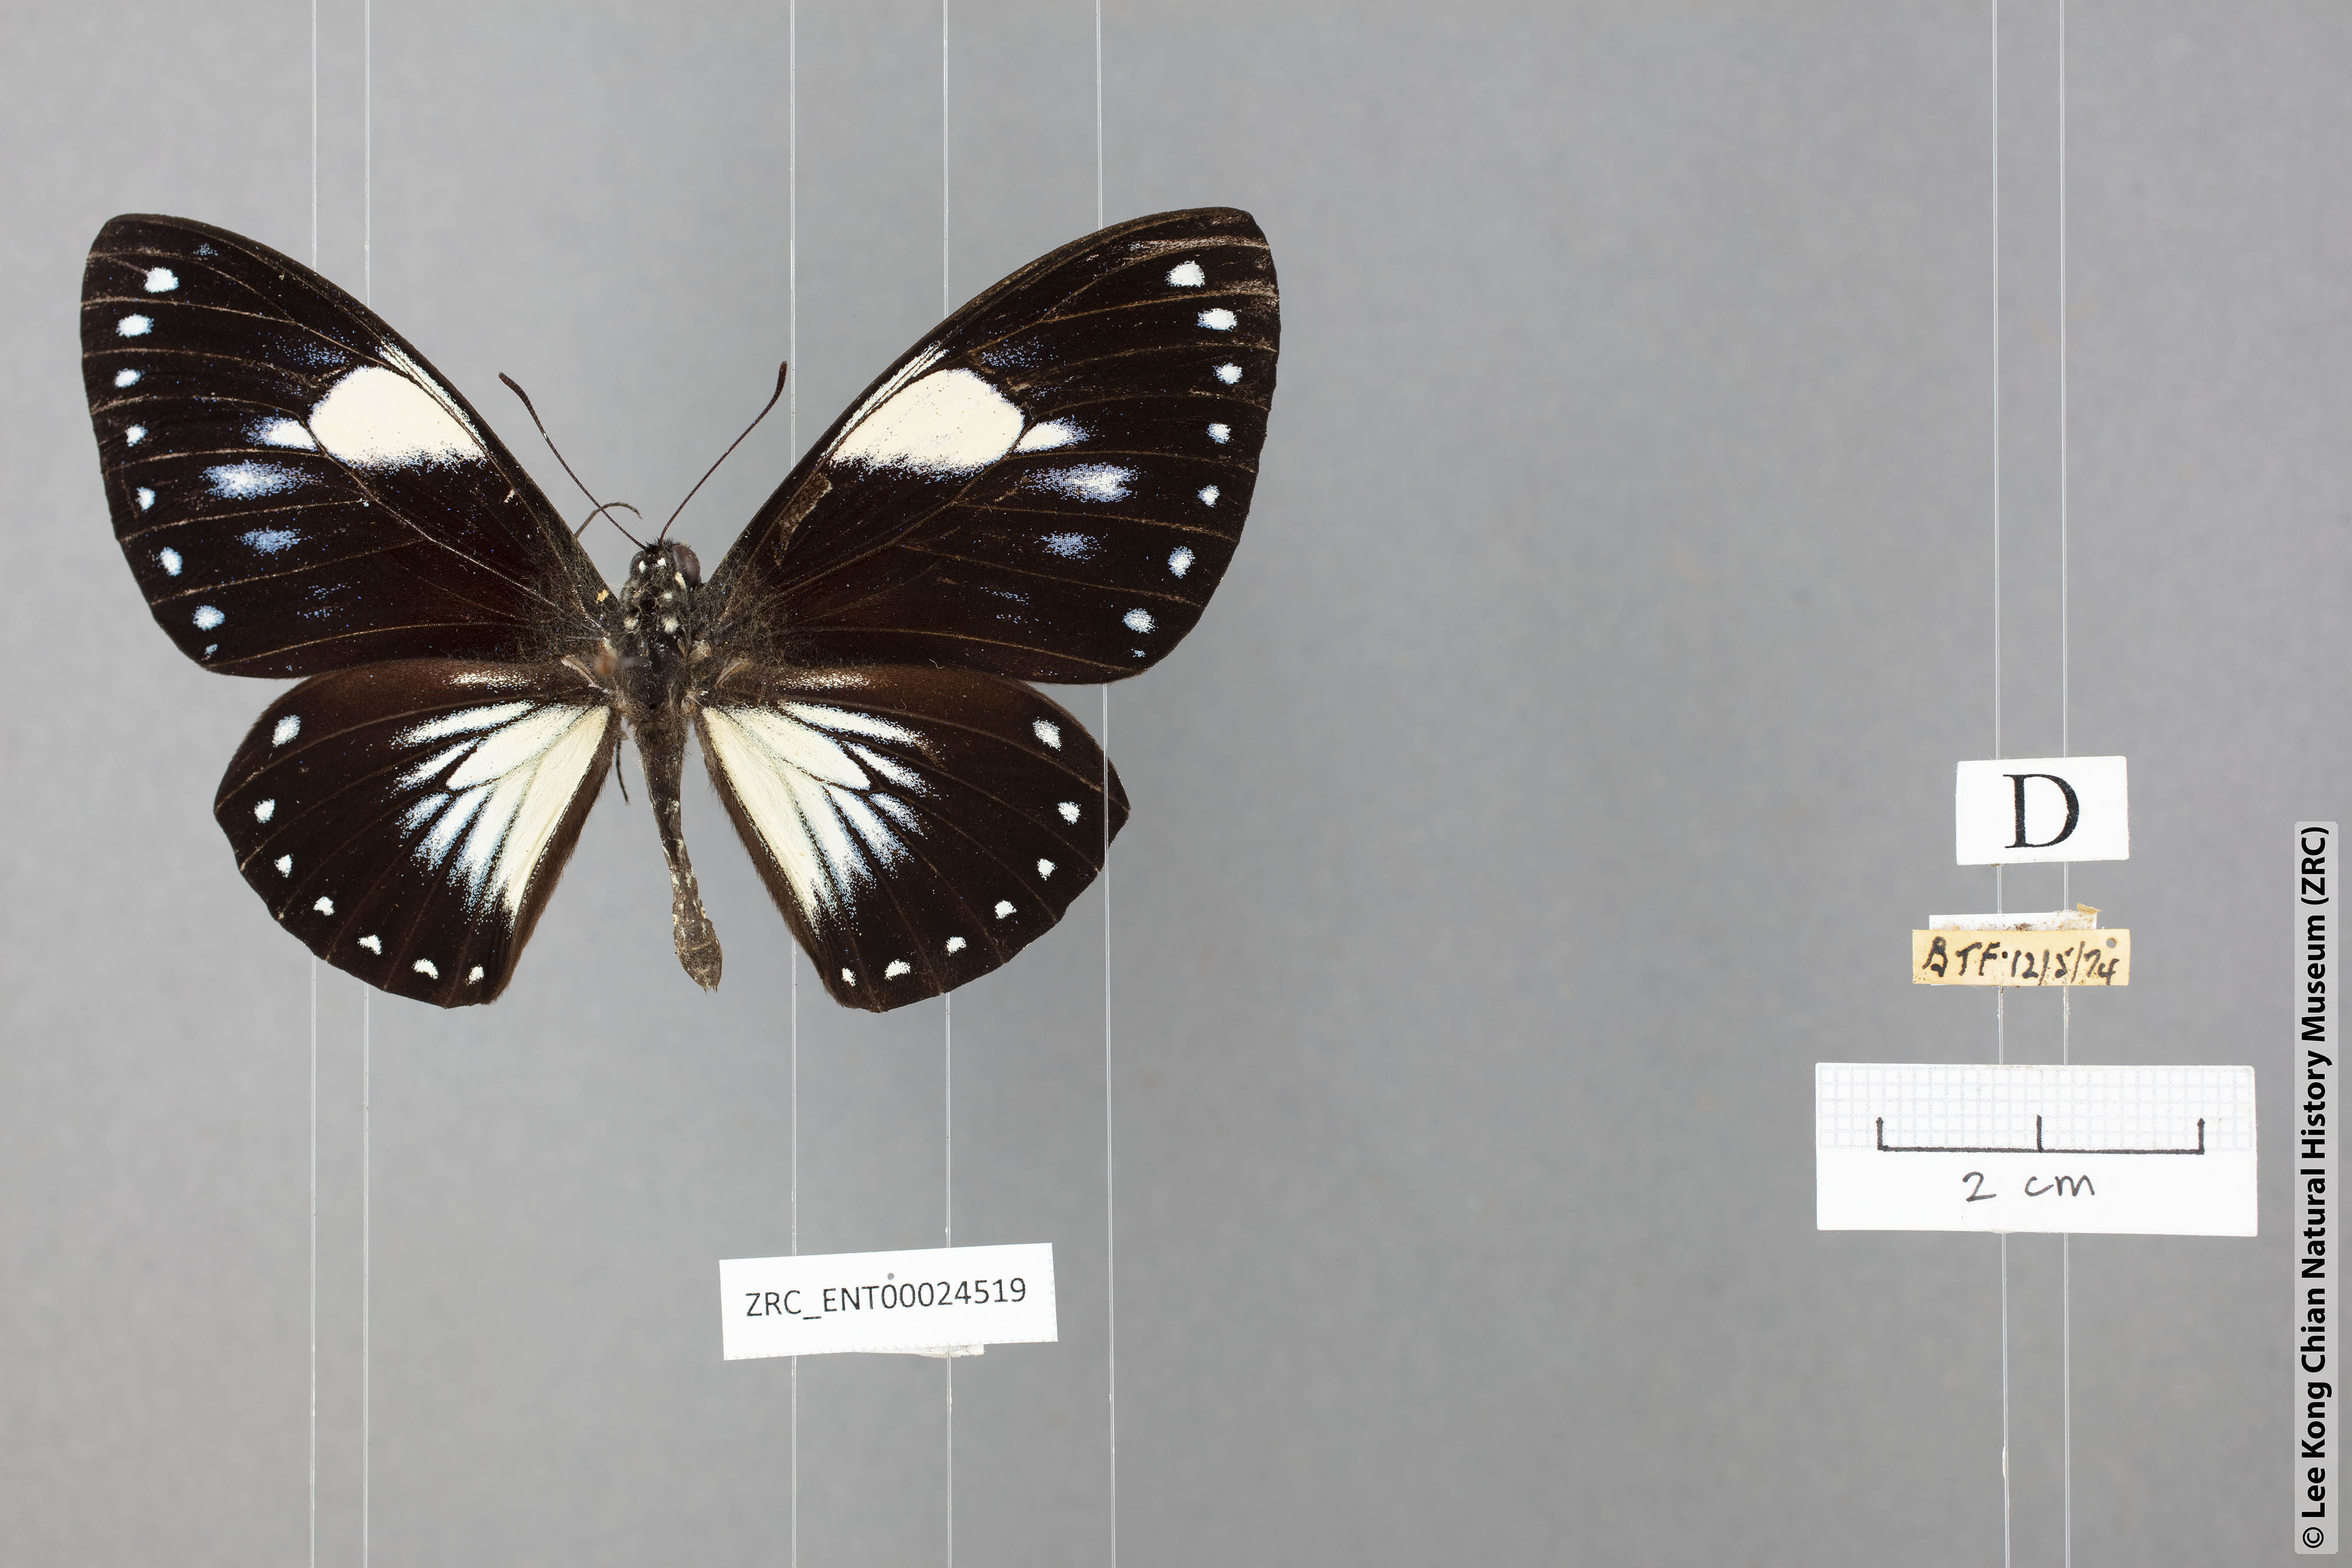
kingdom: Animalia
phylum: Arthropoda
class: Insecta
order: Lepidoptera
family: Papilionidae
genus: Chilasa
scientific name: Chilasa paradoxa
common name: Great mime
